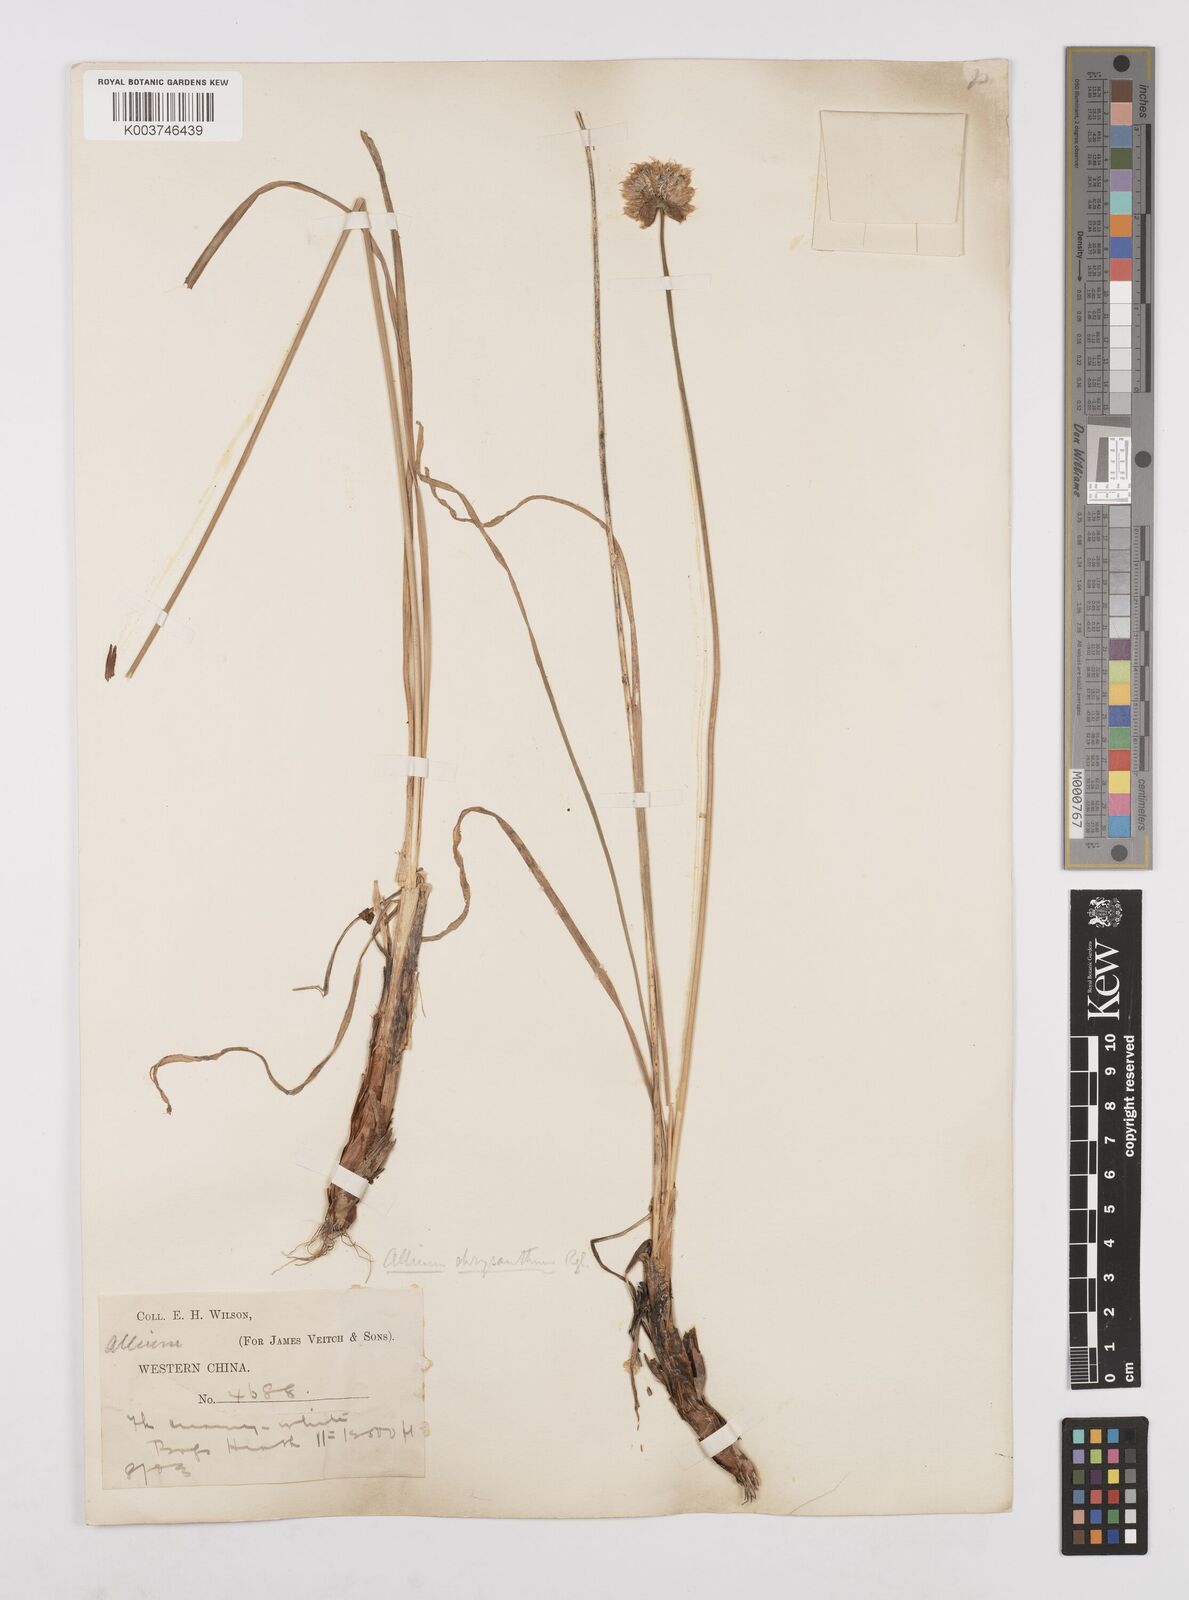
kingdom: Plantae
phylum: Tracheophyta
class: Liliopsida
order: Asparagales
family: Amaryllidaceae
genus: Allium
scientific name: Allium chrysanthum
